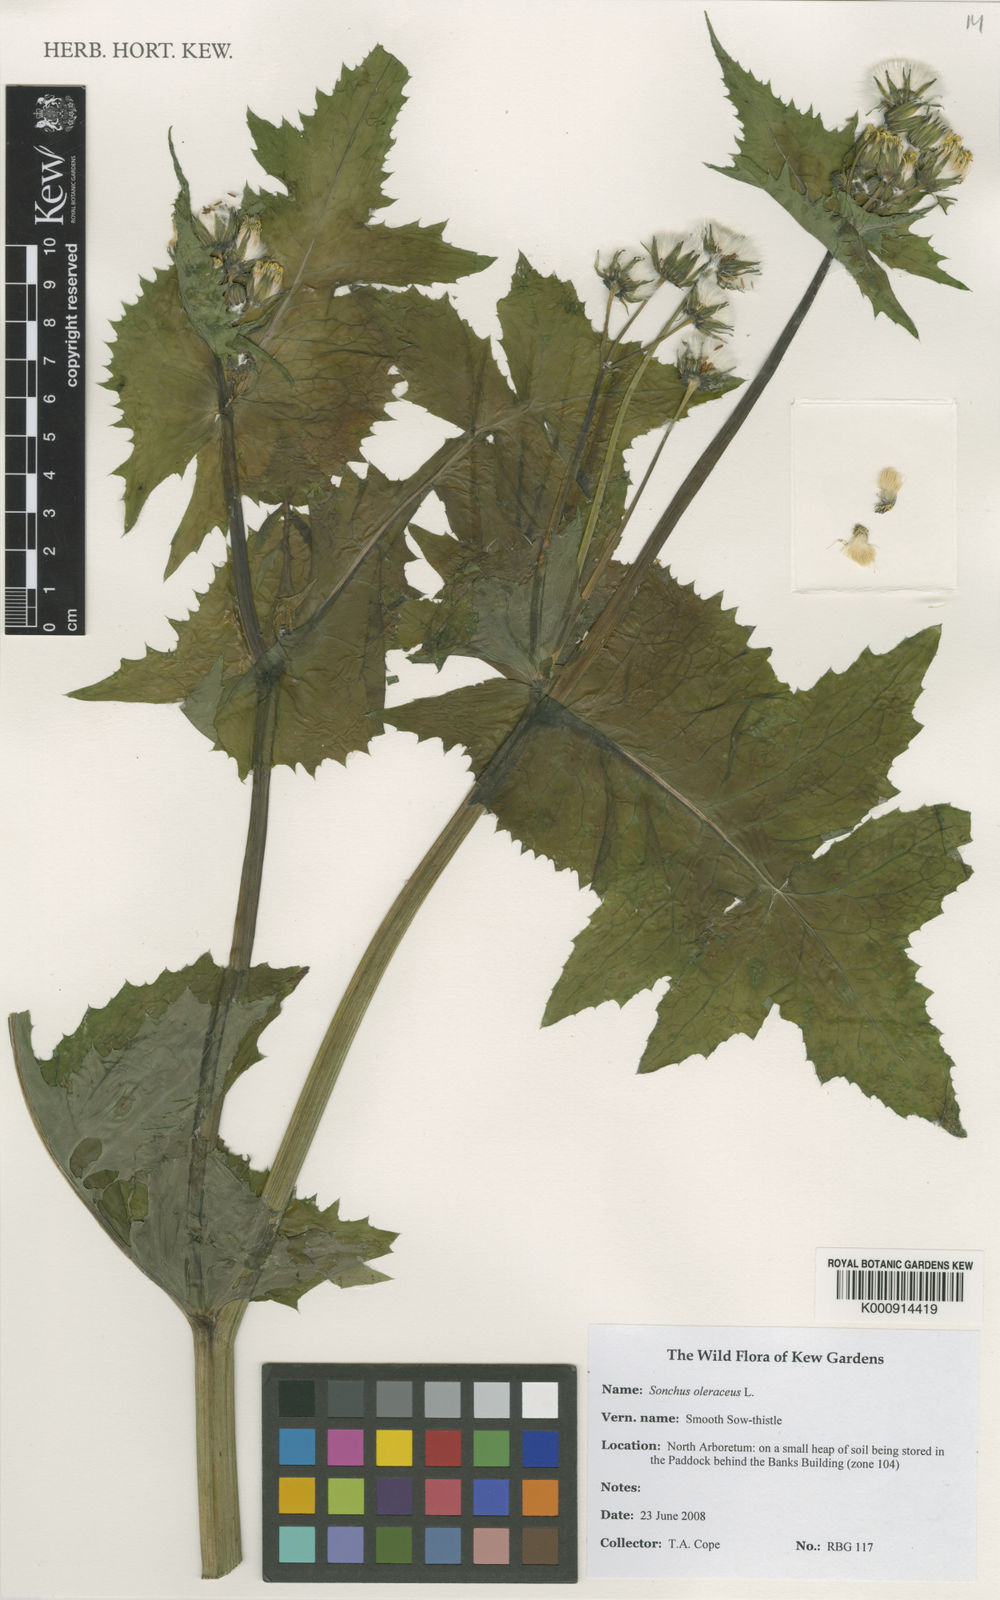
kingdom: Plantae
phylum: Tracheophyta
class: Magnoliopsida
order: Asterales
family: Asteraceae
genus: Sonchus
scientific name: Sonchus oleraceus
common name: Common sowthistle
